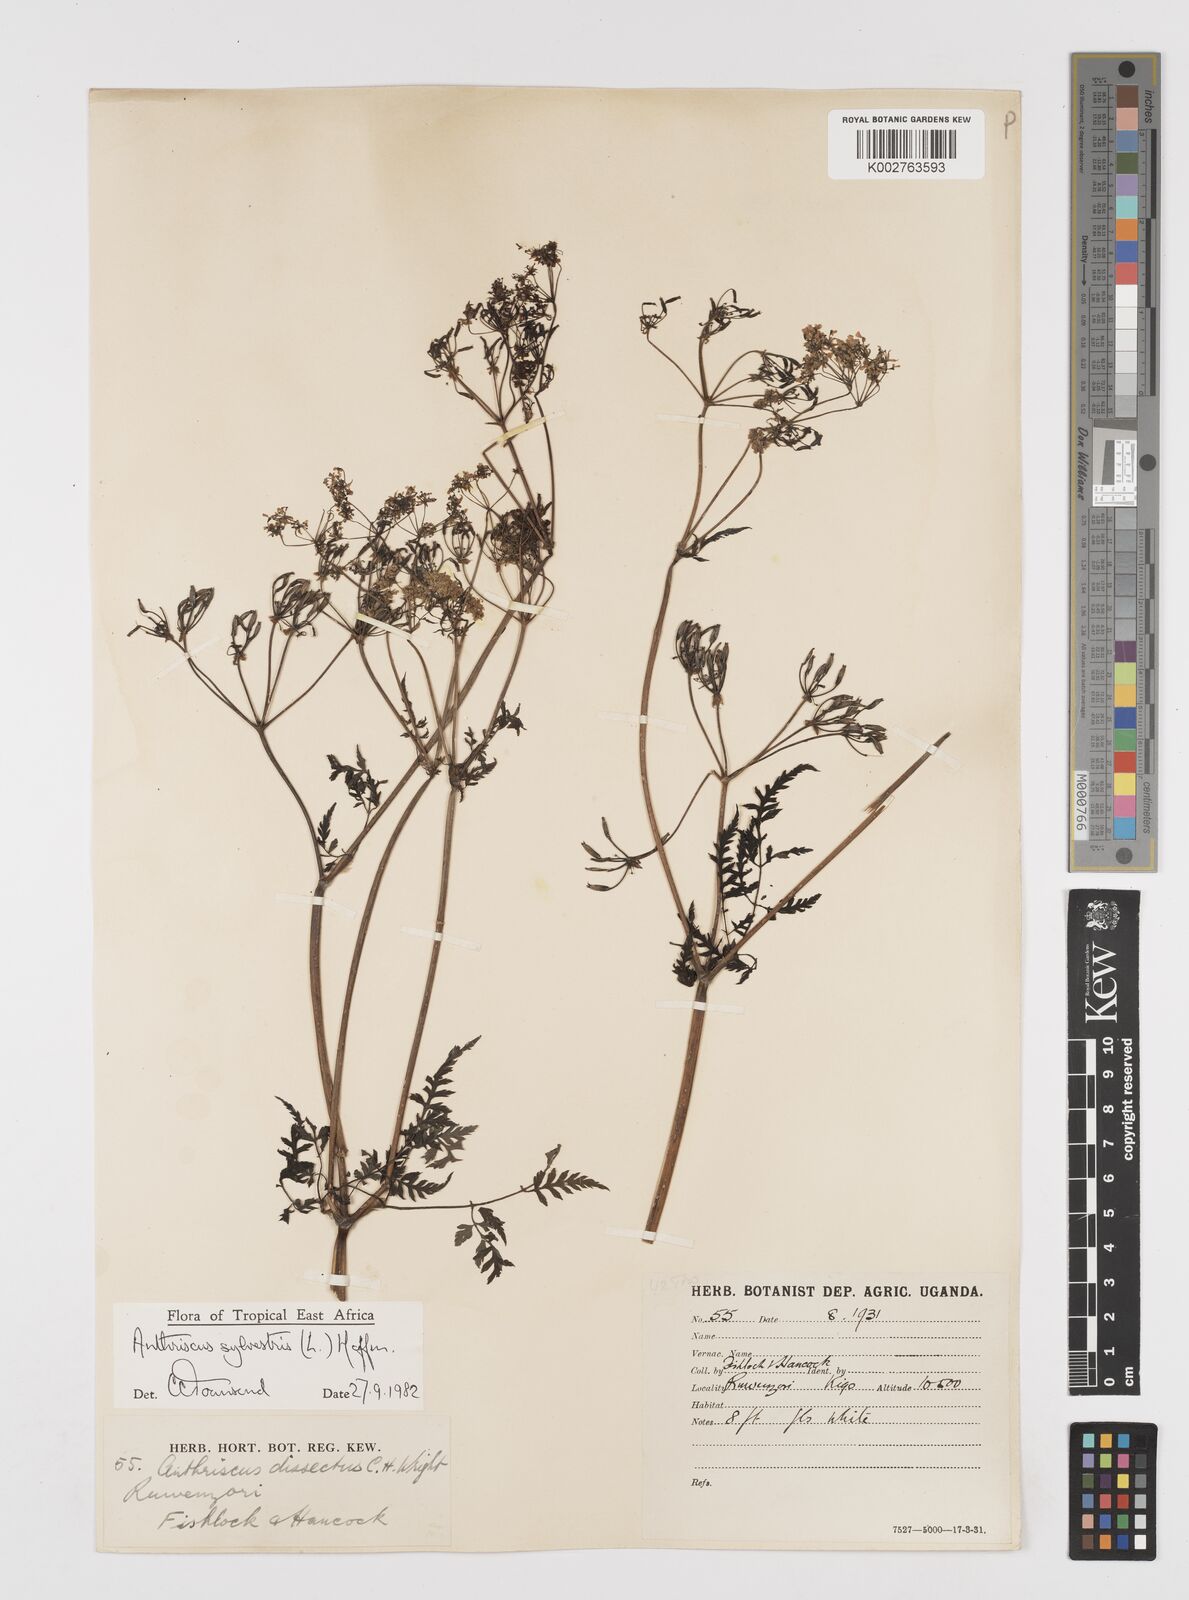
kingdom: Plantae
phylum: Tracheophyta
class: Magnoliopsida
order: Apiales
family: Apiaceae
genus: Anthriscus
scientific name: Anthriscus sylvestris
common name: Cow parsley
